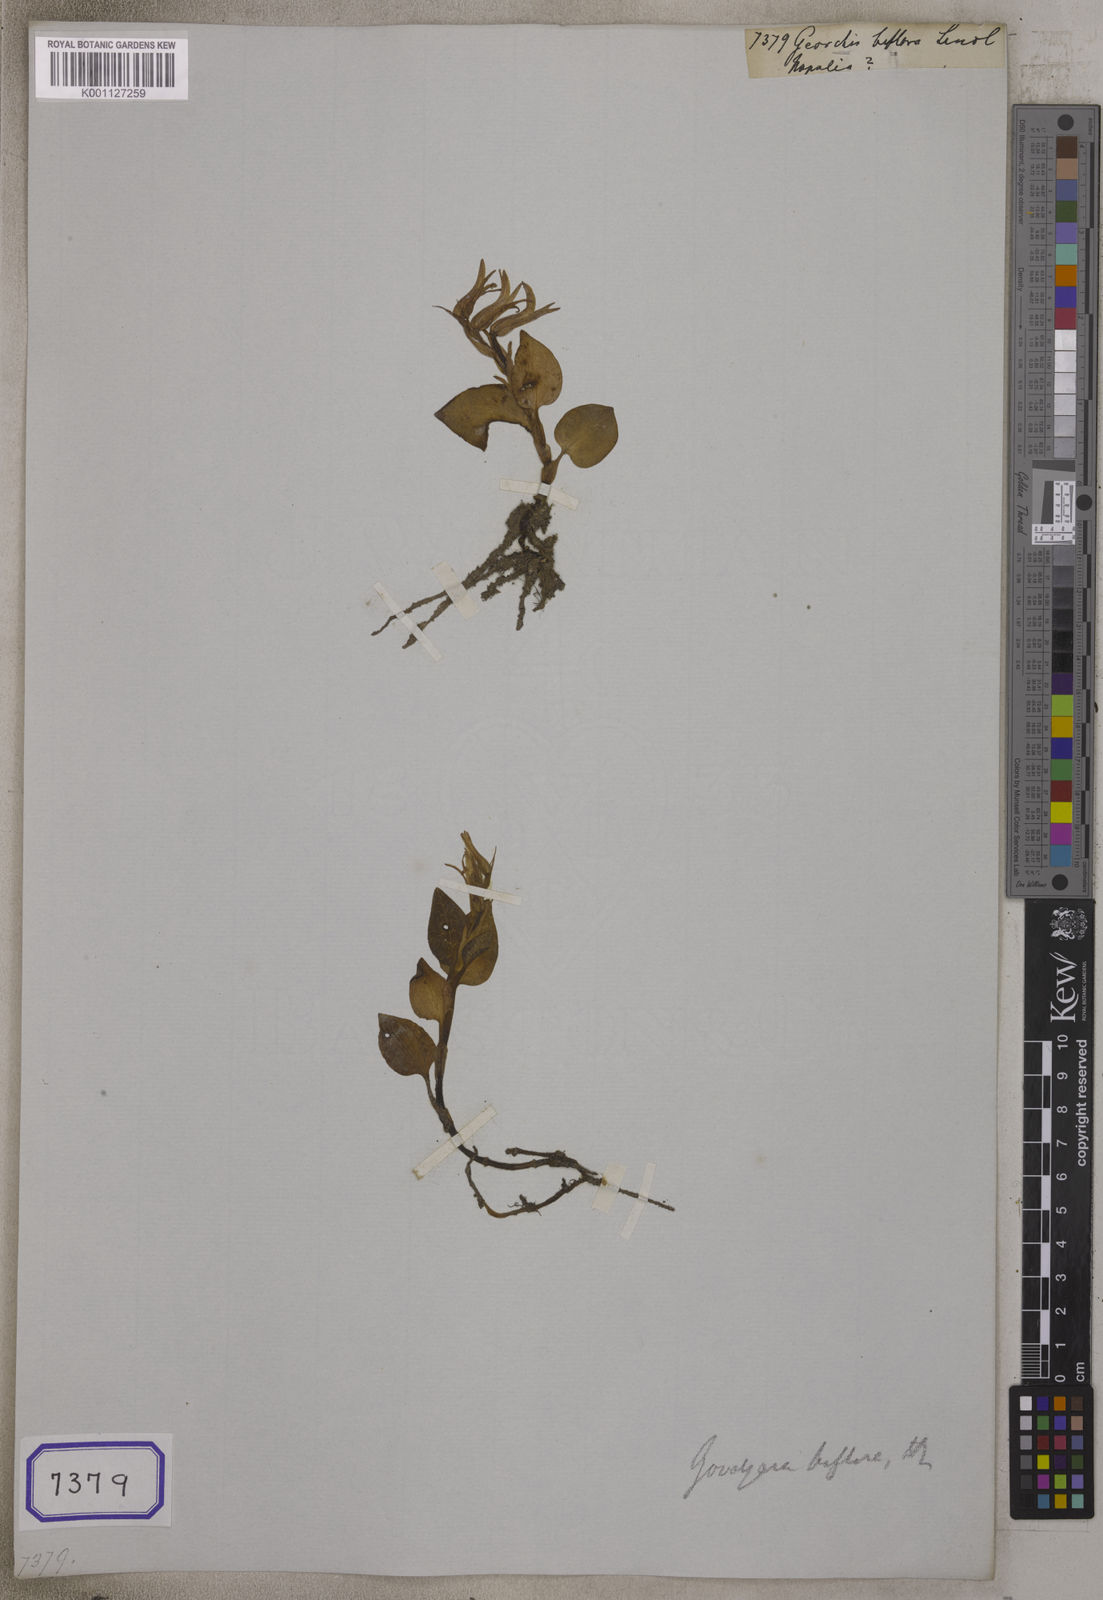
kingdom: Plantae
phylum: Tracheophyta
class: Liliopsida
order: Asparagales
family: Orchidaceae
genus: Goodyera
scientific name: Goodyera biflora
